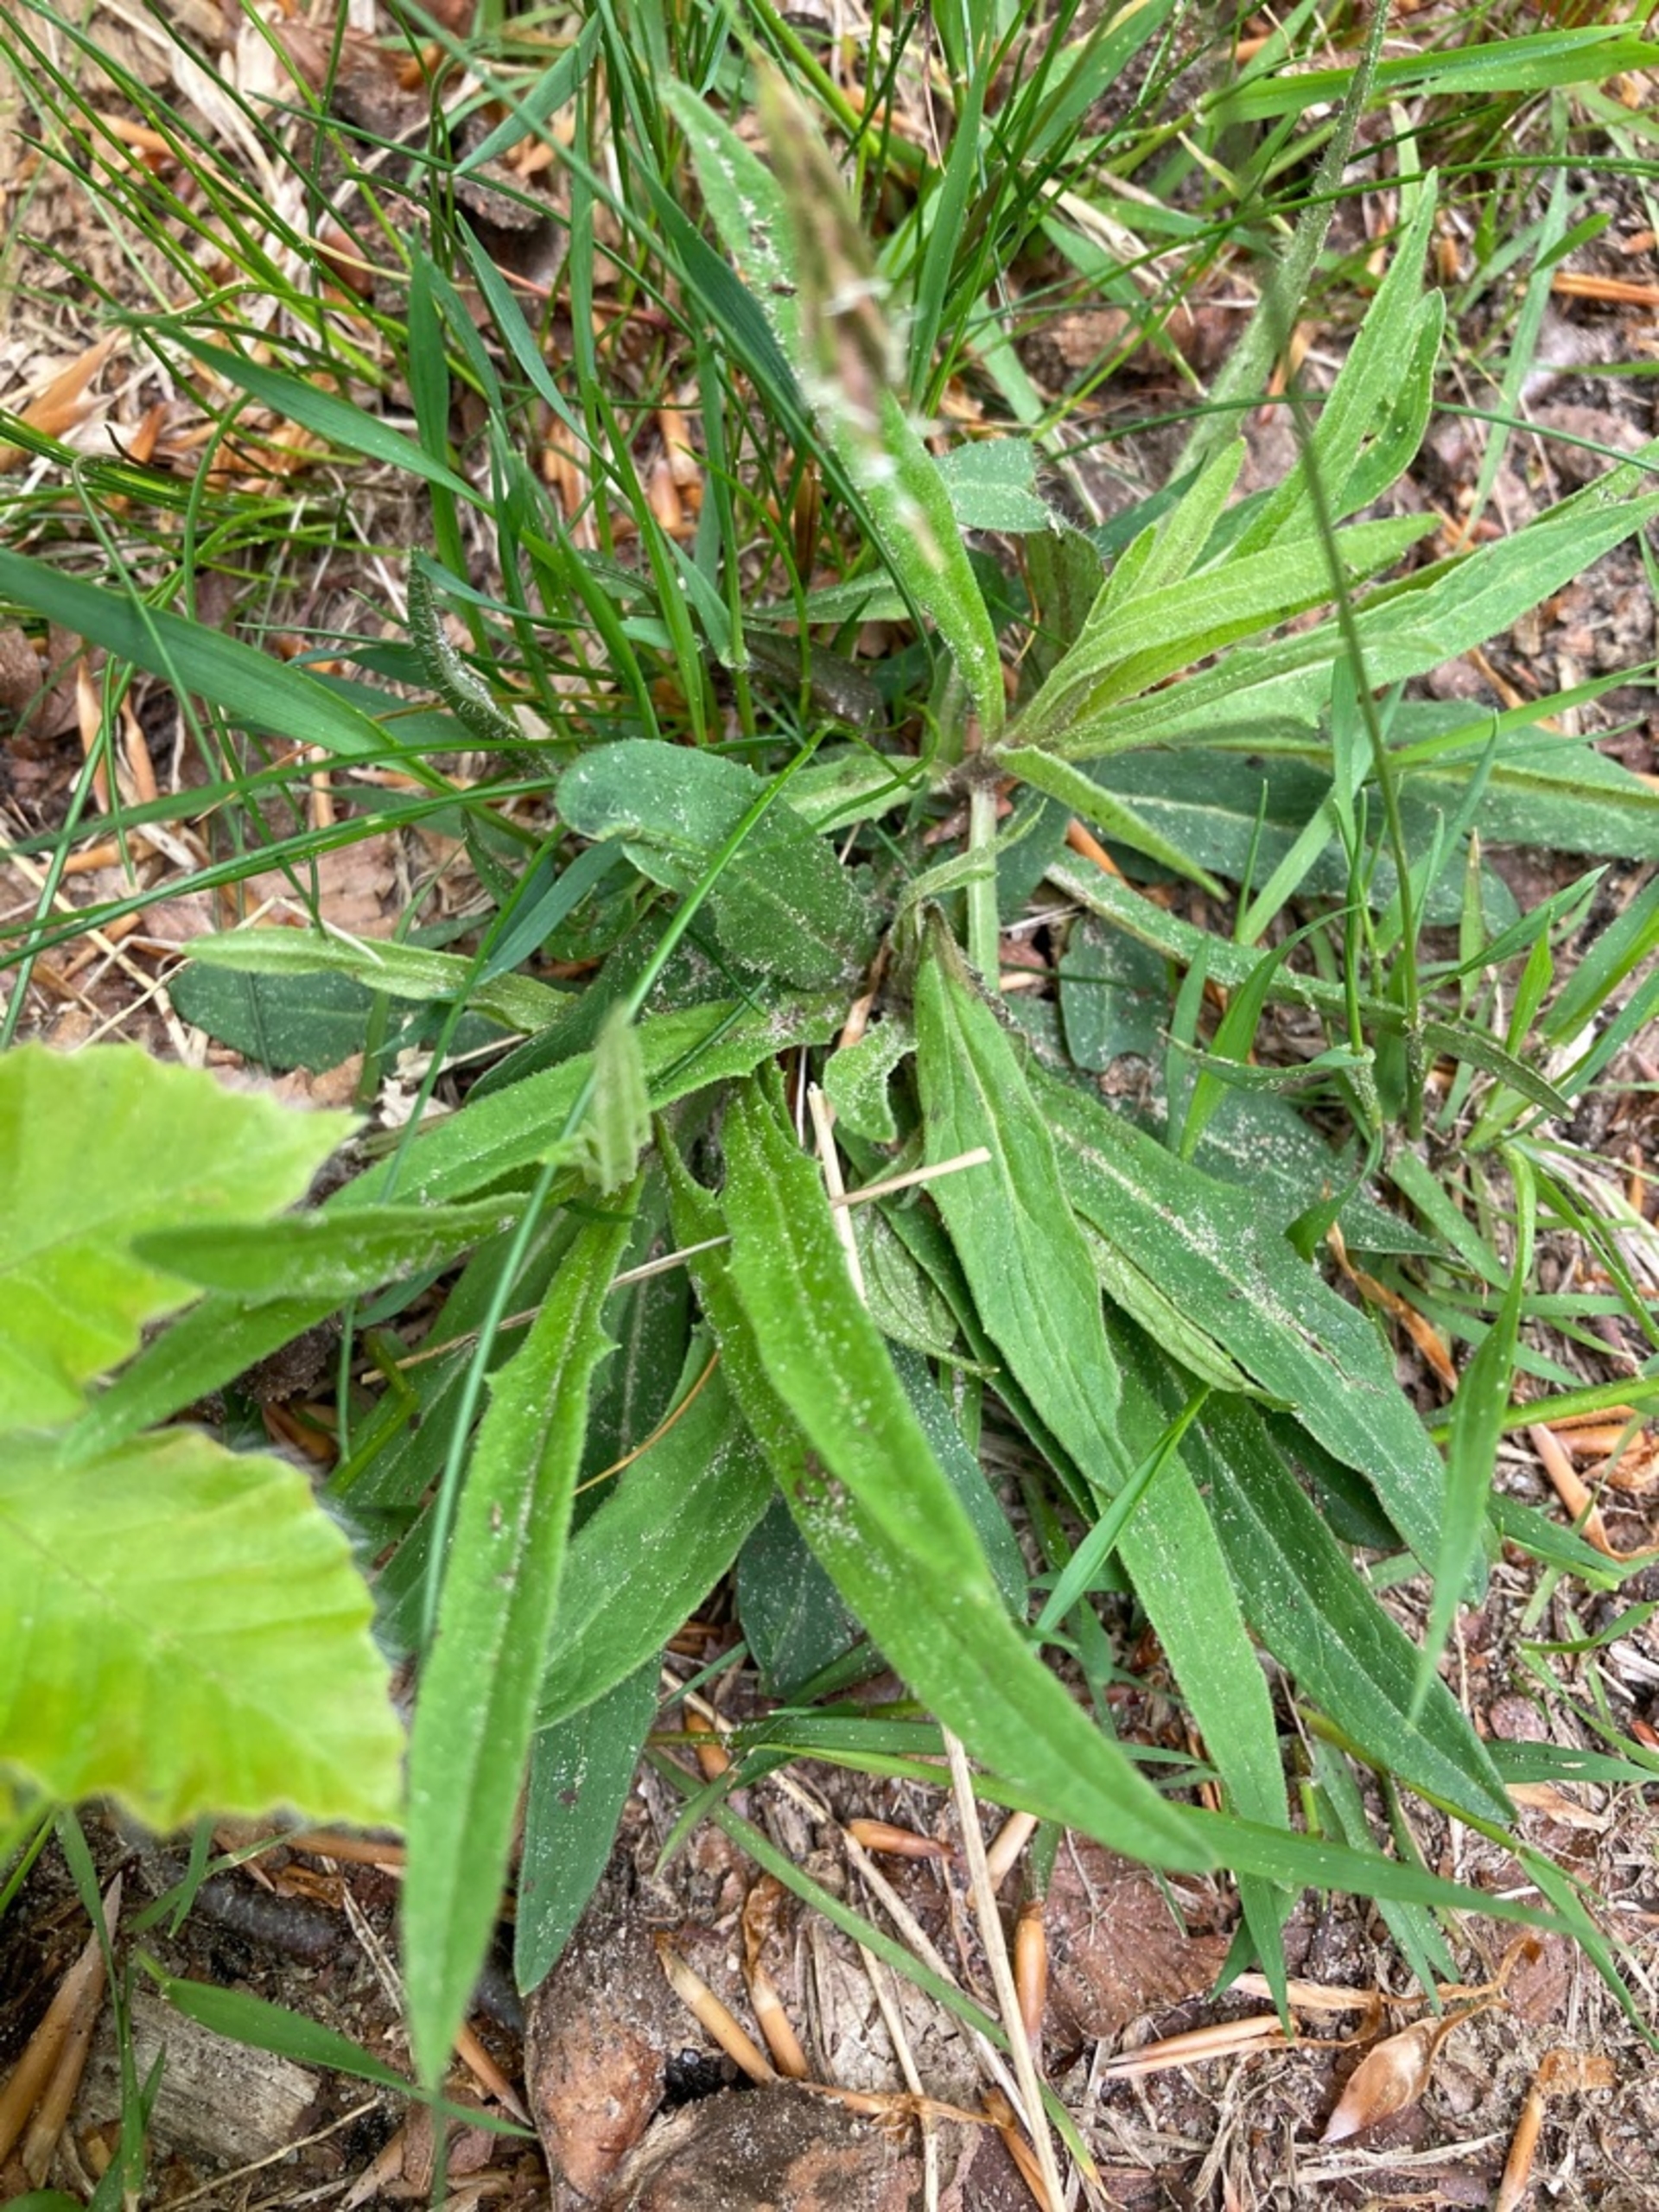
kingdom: Plantae
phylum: Tracheophyta
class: Magnoliopsida
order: Asterales
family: Asteraceae
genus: Hieracium
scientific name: Hieracium umbellatum
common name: Smalbladet høgeurt
